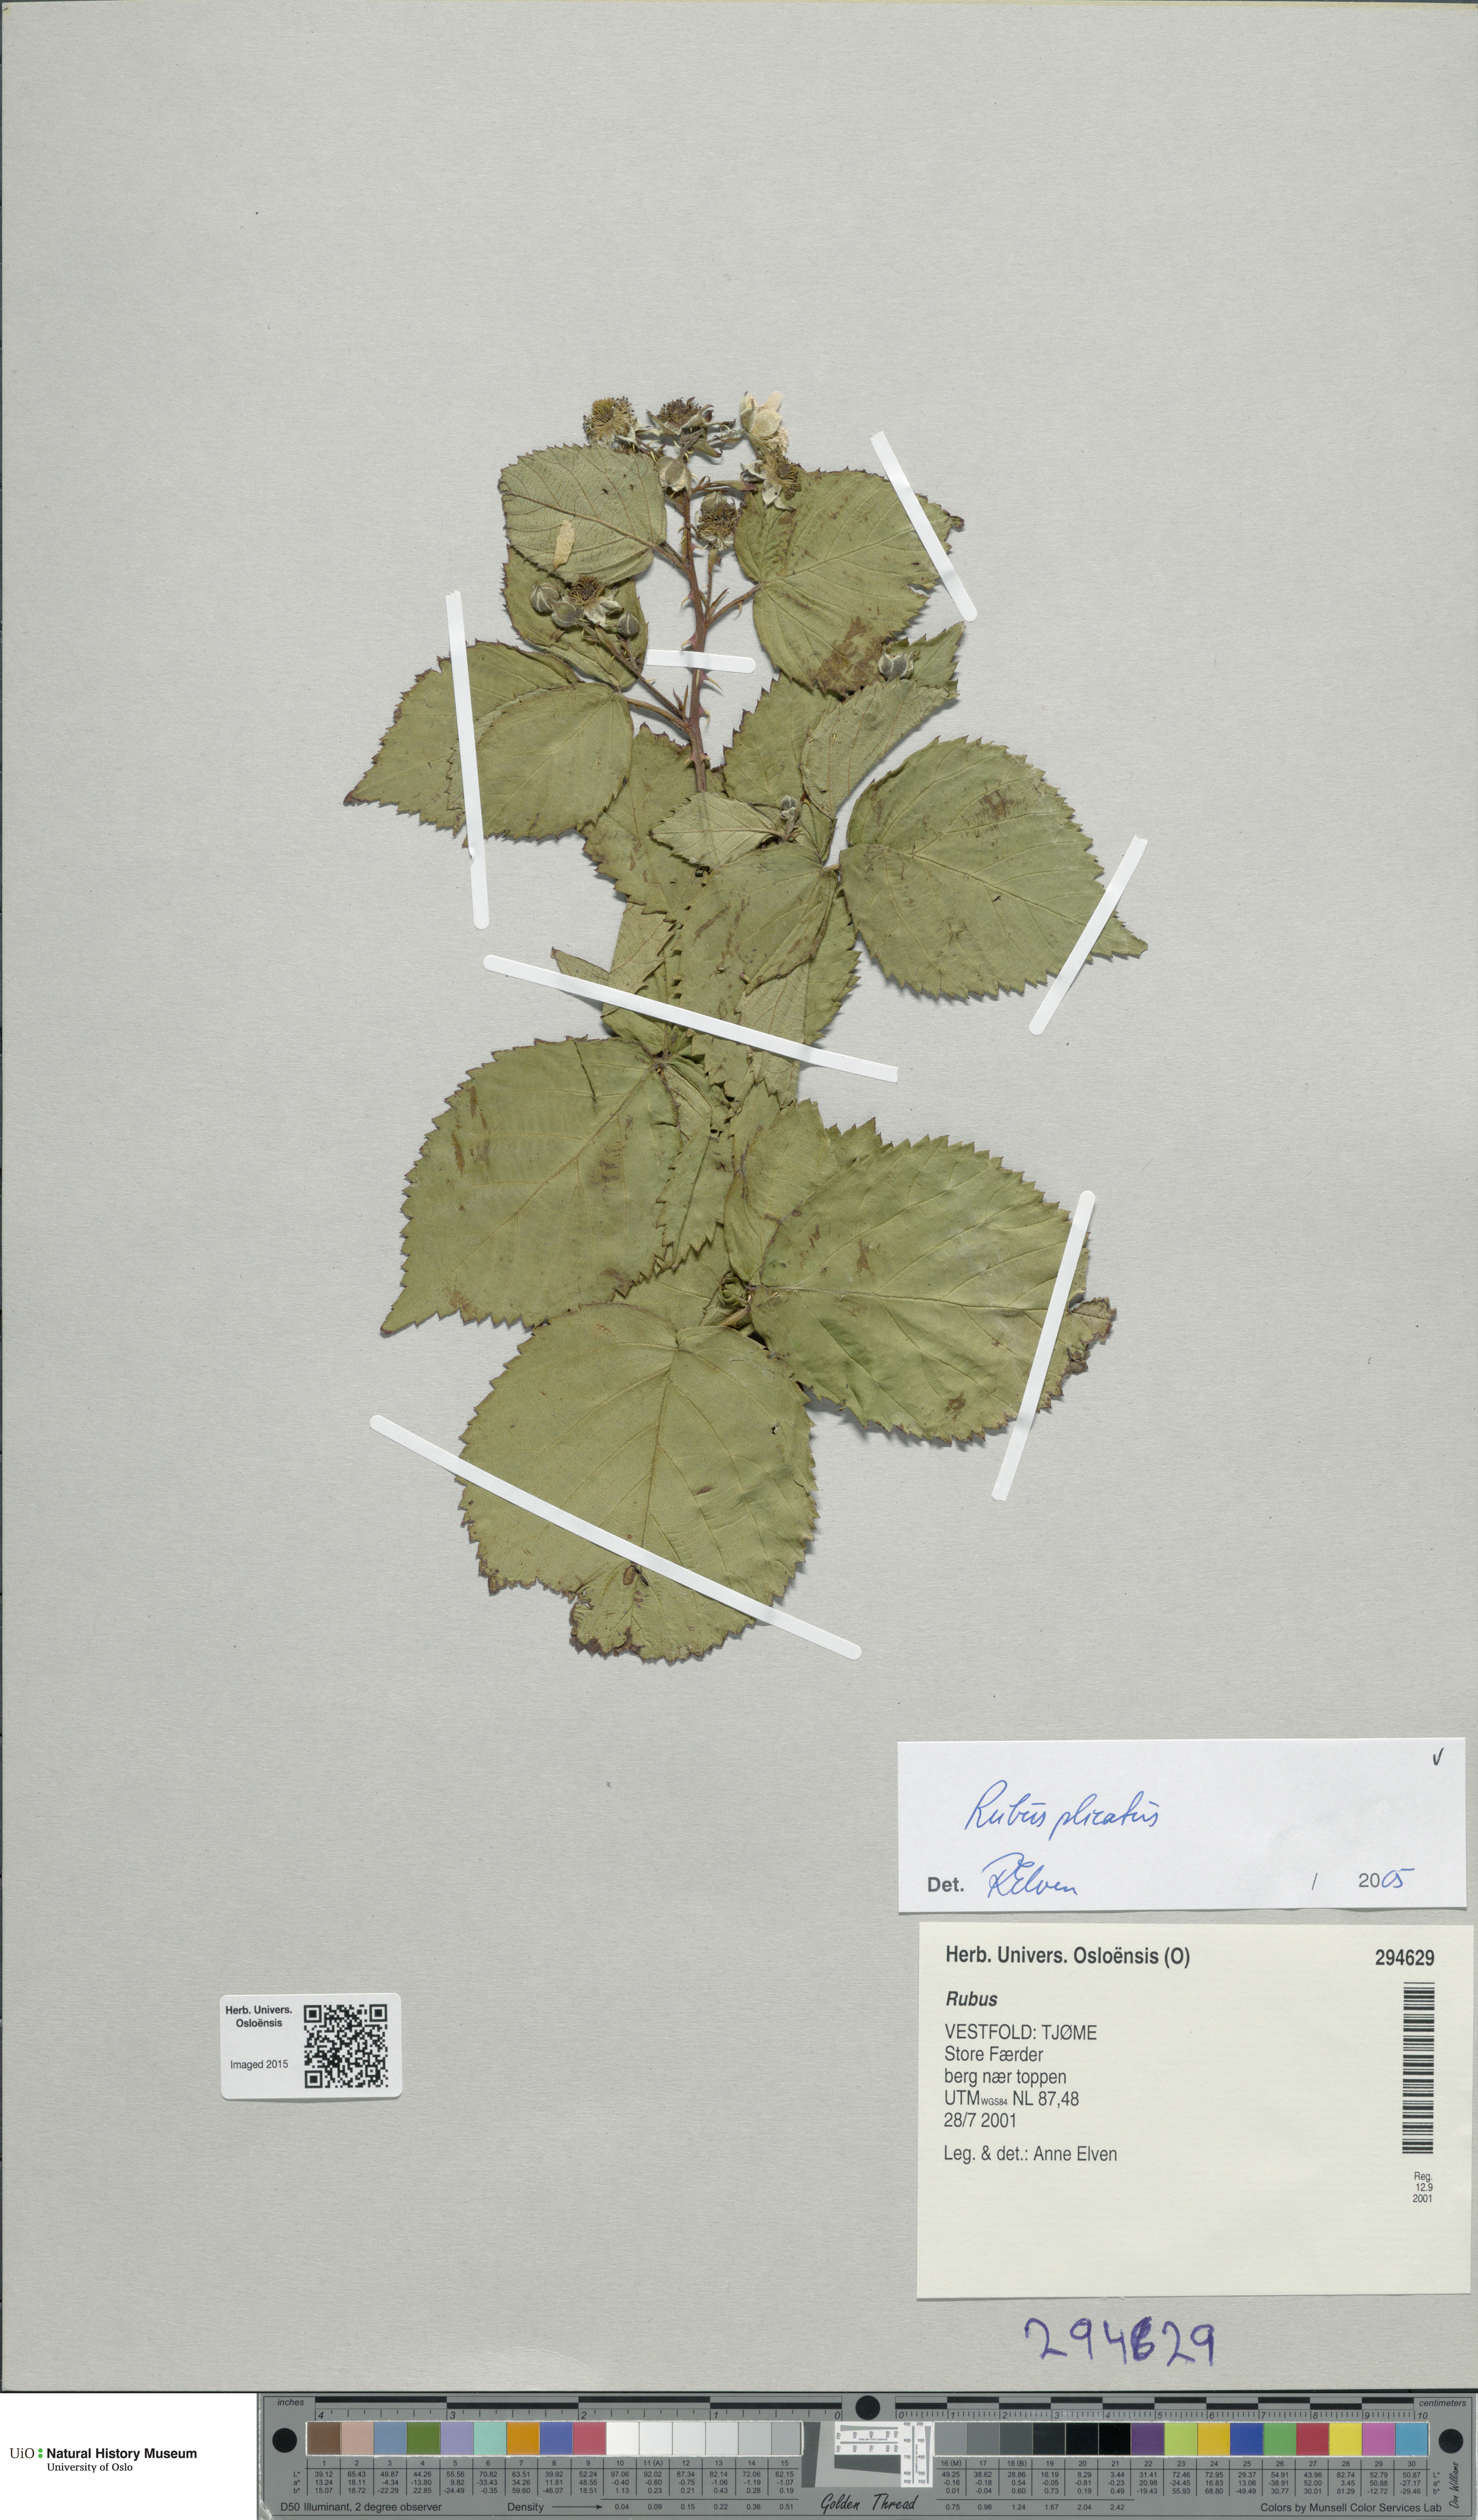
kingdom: Plantae
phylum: Tracheophyta
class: Magnoliopsida
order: Rosales
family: Rosaceae
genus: Rubus
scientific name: Rubus fruticosus
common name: Blackberry, bramble
